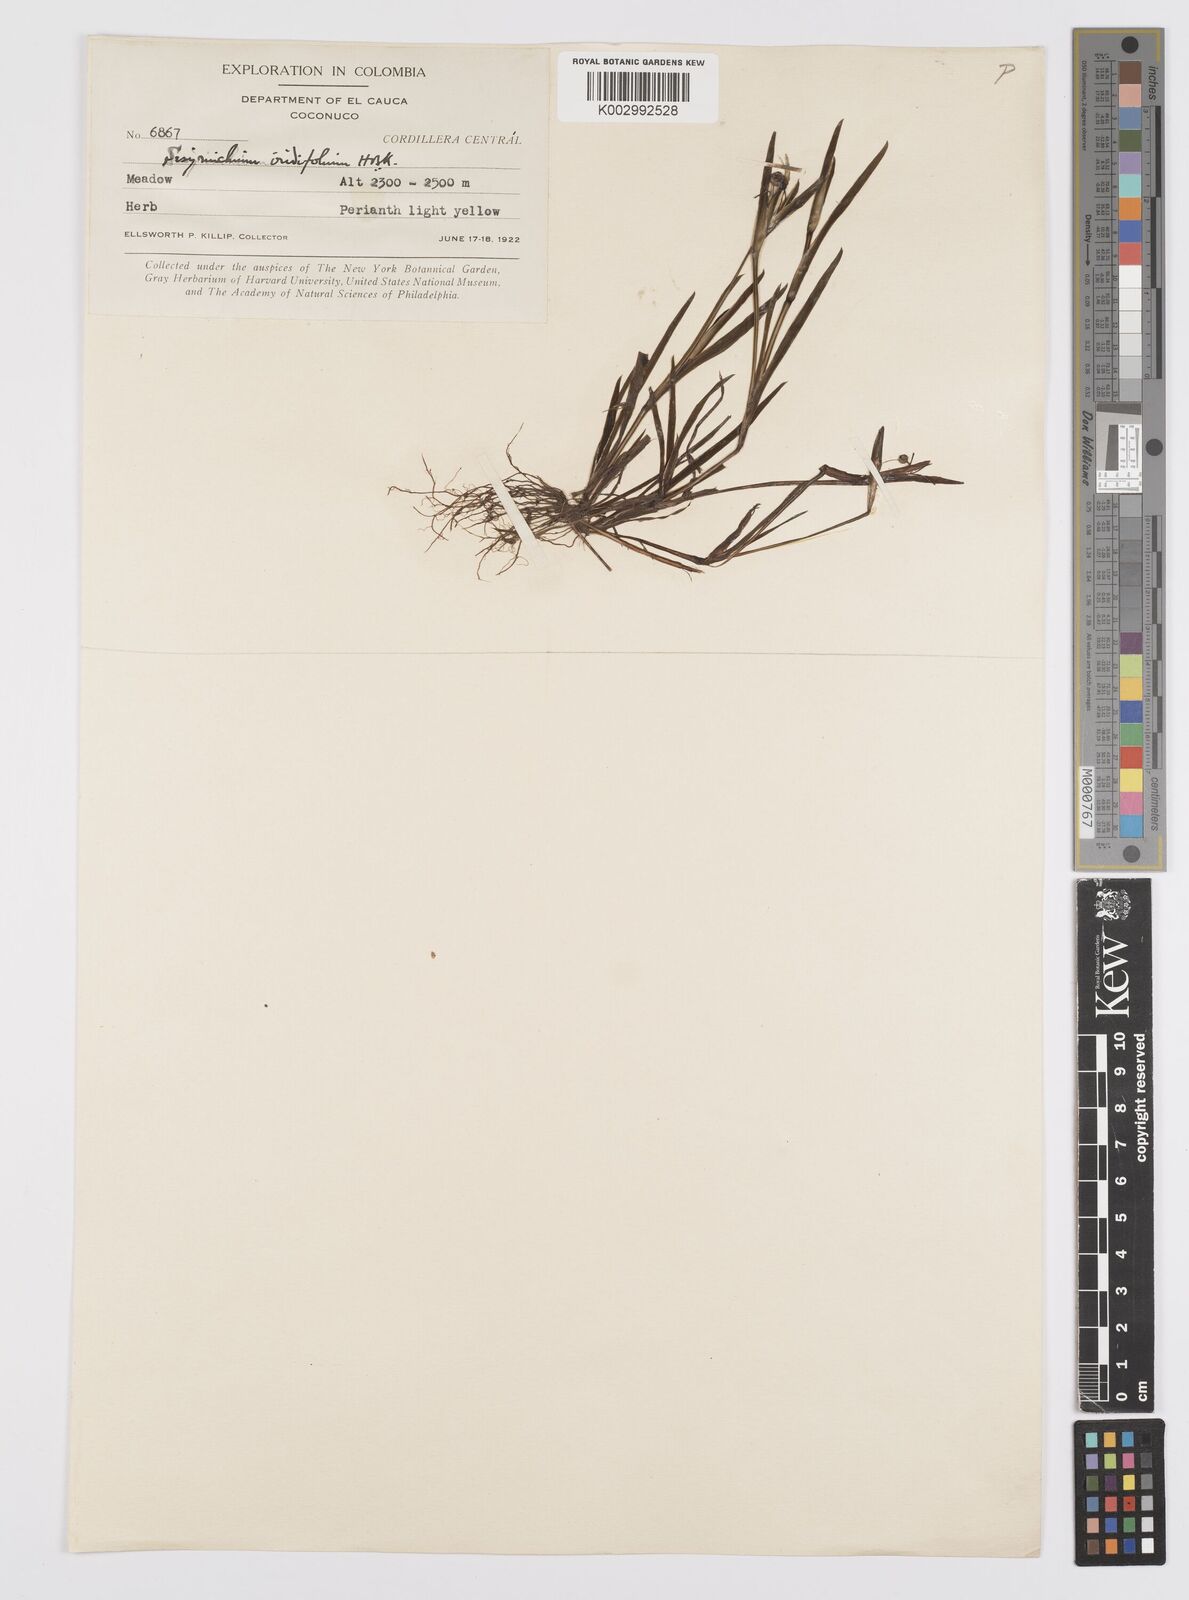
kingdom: Plantae
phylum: Tracheophyta
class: Liliopsida
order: Asparagales
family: Iridaceae
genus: Sisyrinchium
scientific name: Sisyrinchium micranthum
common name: Bermuda pigroot
